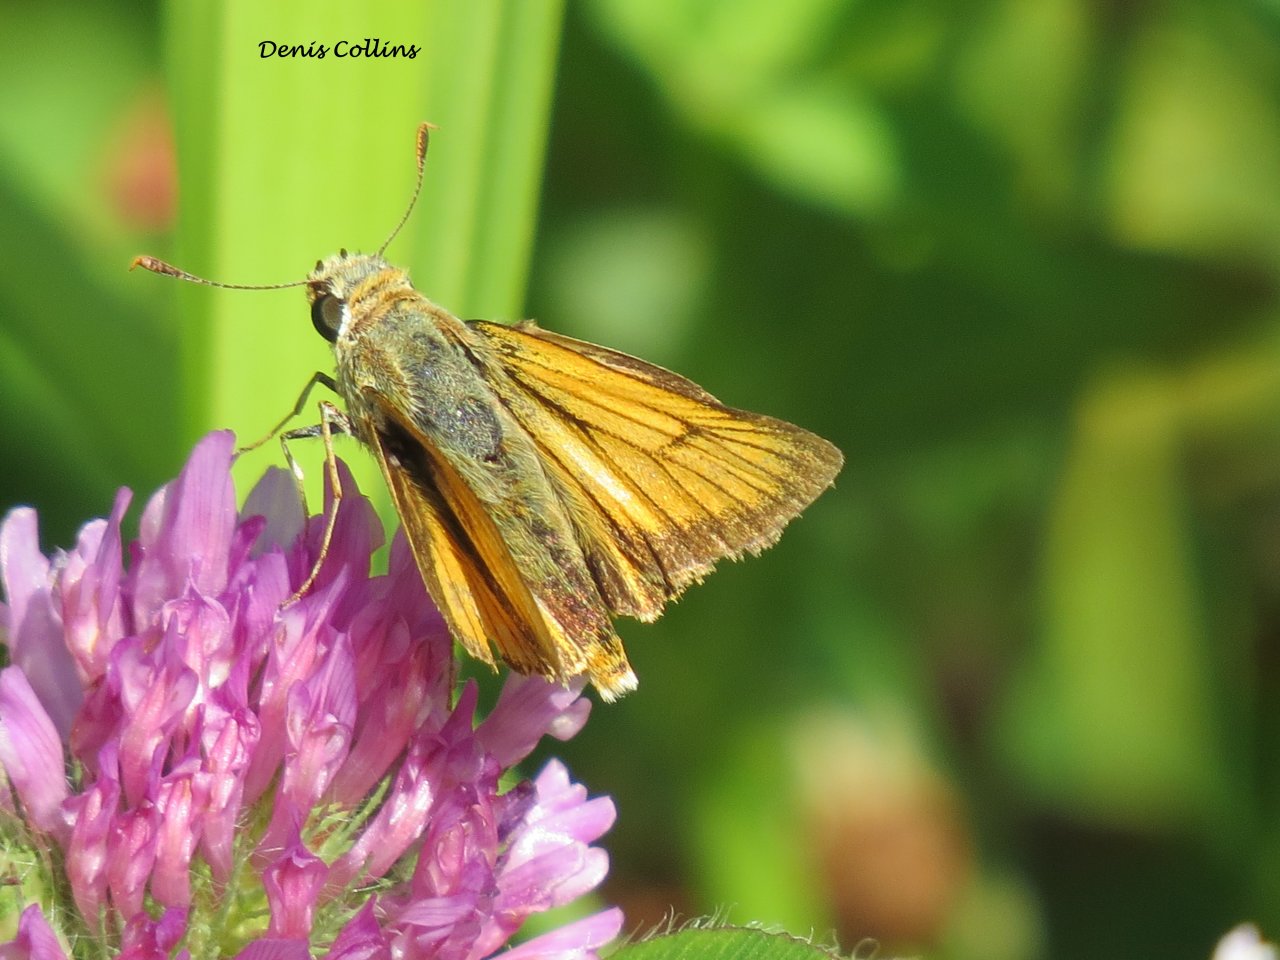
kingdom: Animalia
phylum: Arthropoda
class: Insecta
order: Lepidoptera
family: Hesperiidae
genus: Atrytone
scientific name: Atrytone delaware
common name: Delaware Skipper
